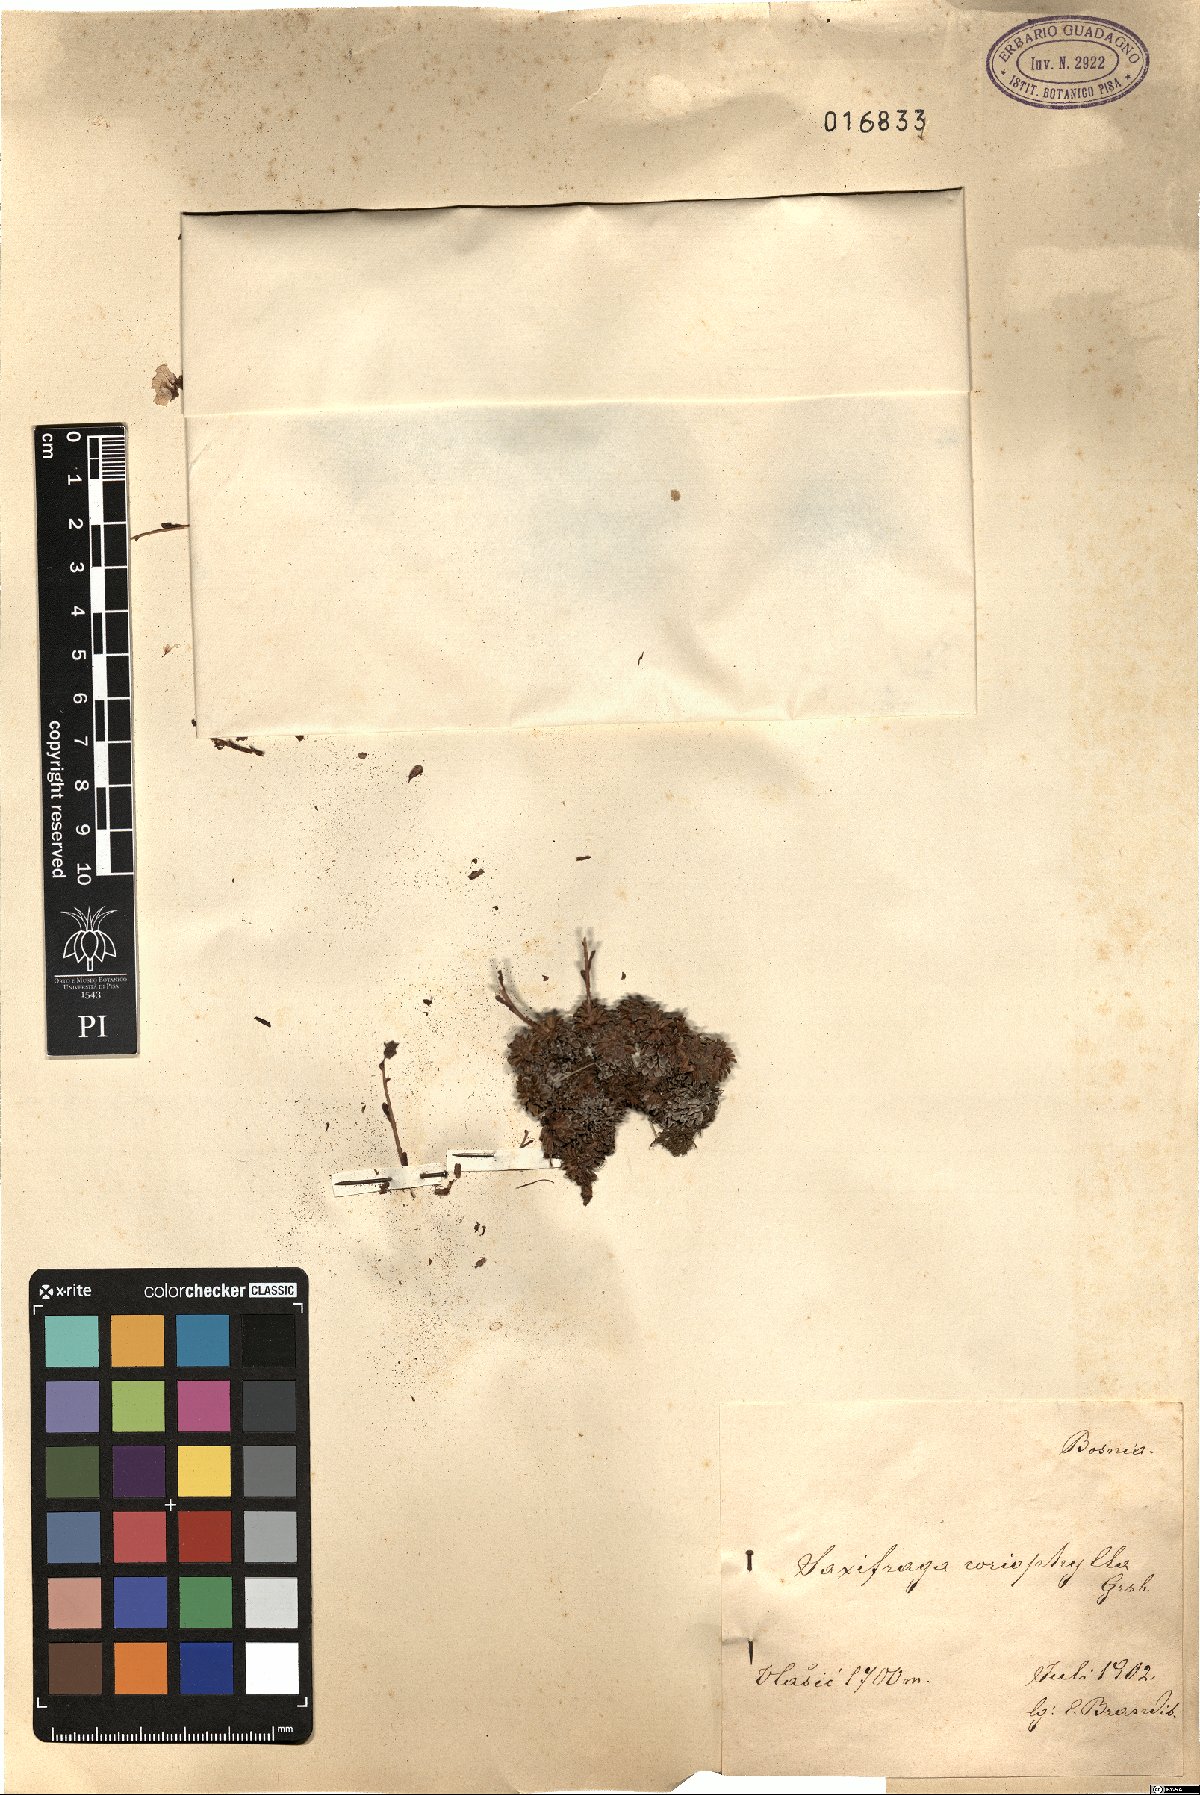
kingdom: Plantae
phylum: Tracheophyta
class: Magnoliopsida
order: Saxifragales
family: Saxifragaceae
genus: Saxifraga
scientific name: Saxifraga marginata
